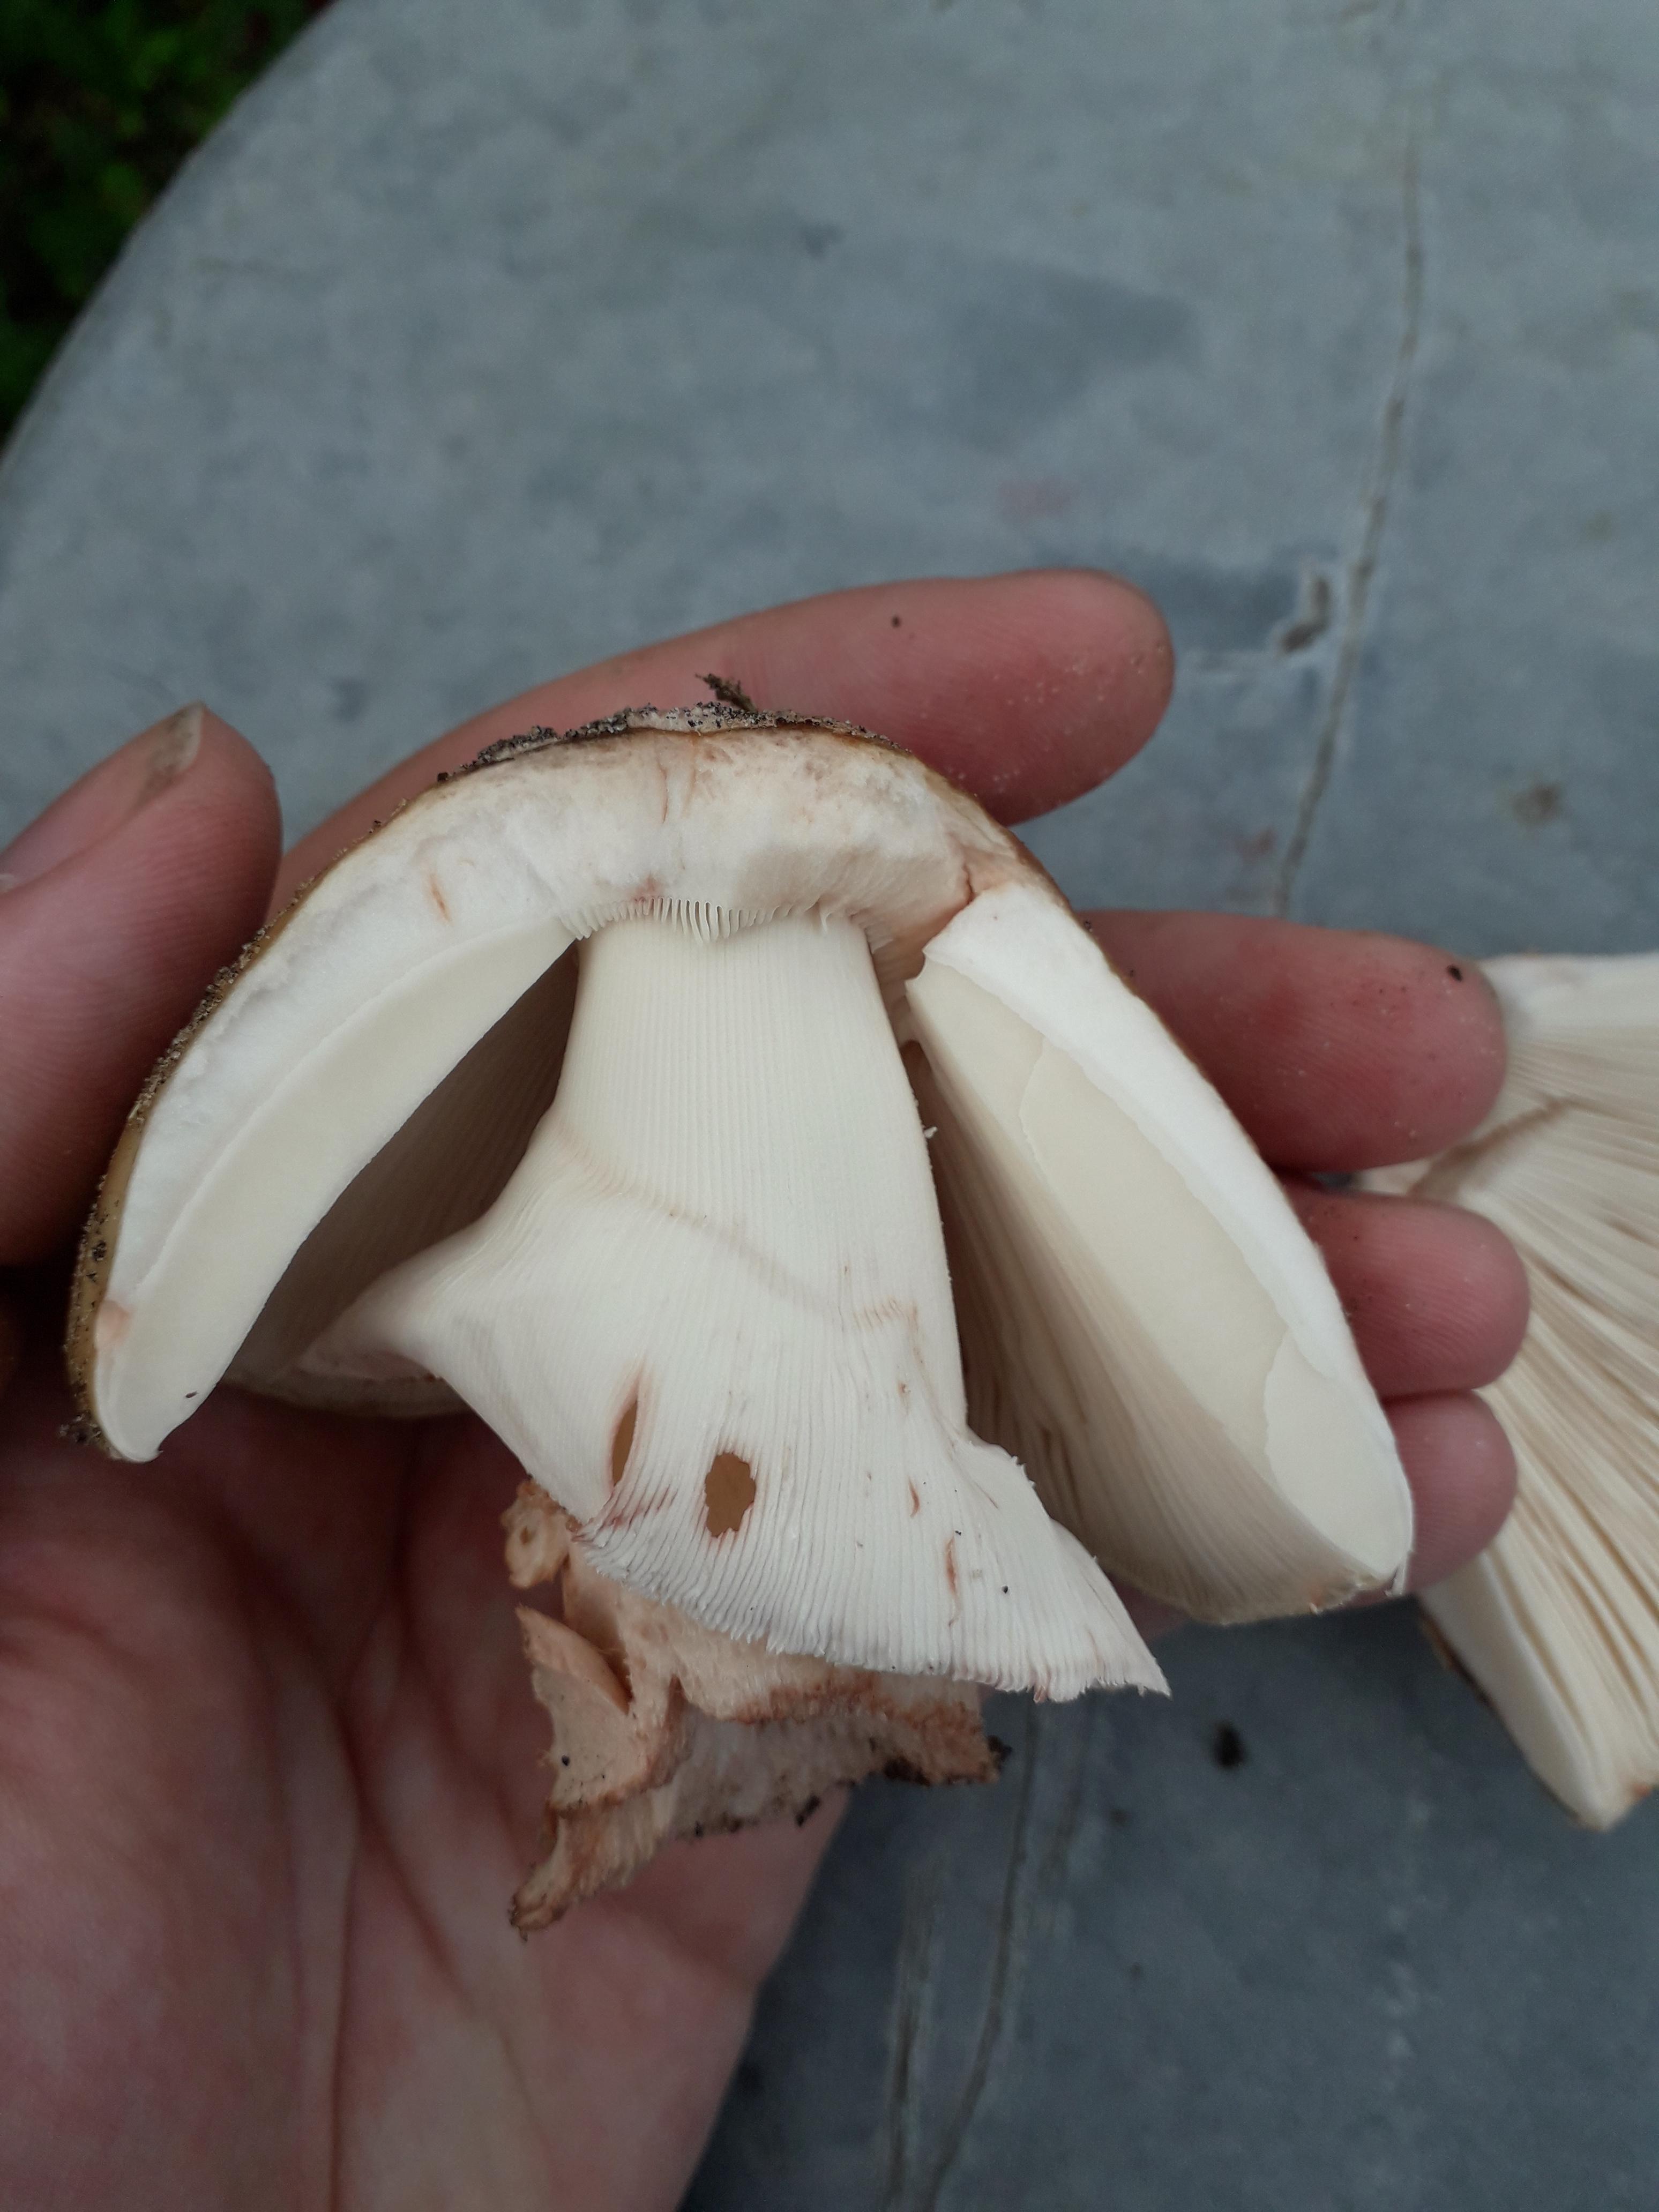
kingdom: Fungi
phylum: Basidiomycota
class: Agaricomycetes
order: Agaricales
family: Amanitaceae
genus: Amanita
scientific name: Amanita rubescens
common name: rødmende fluesvamp
